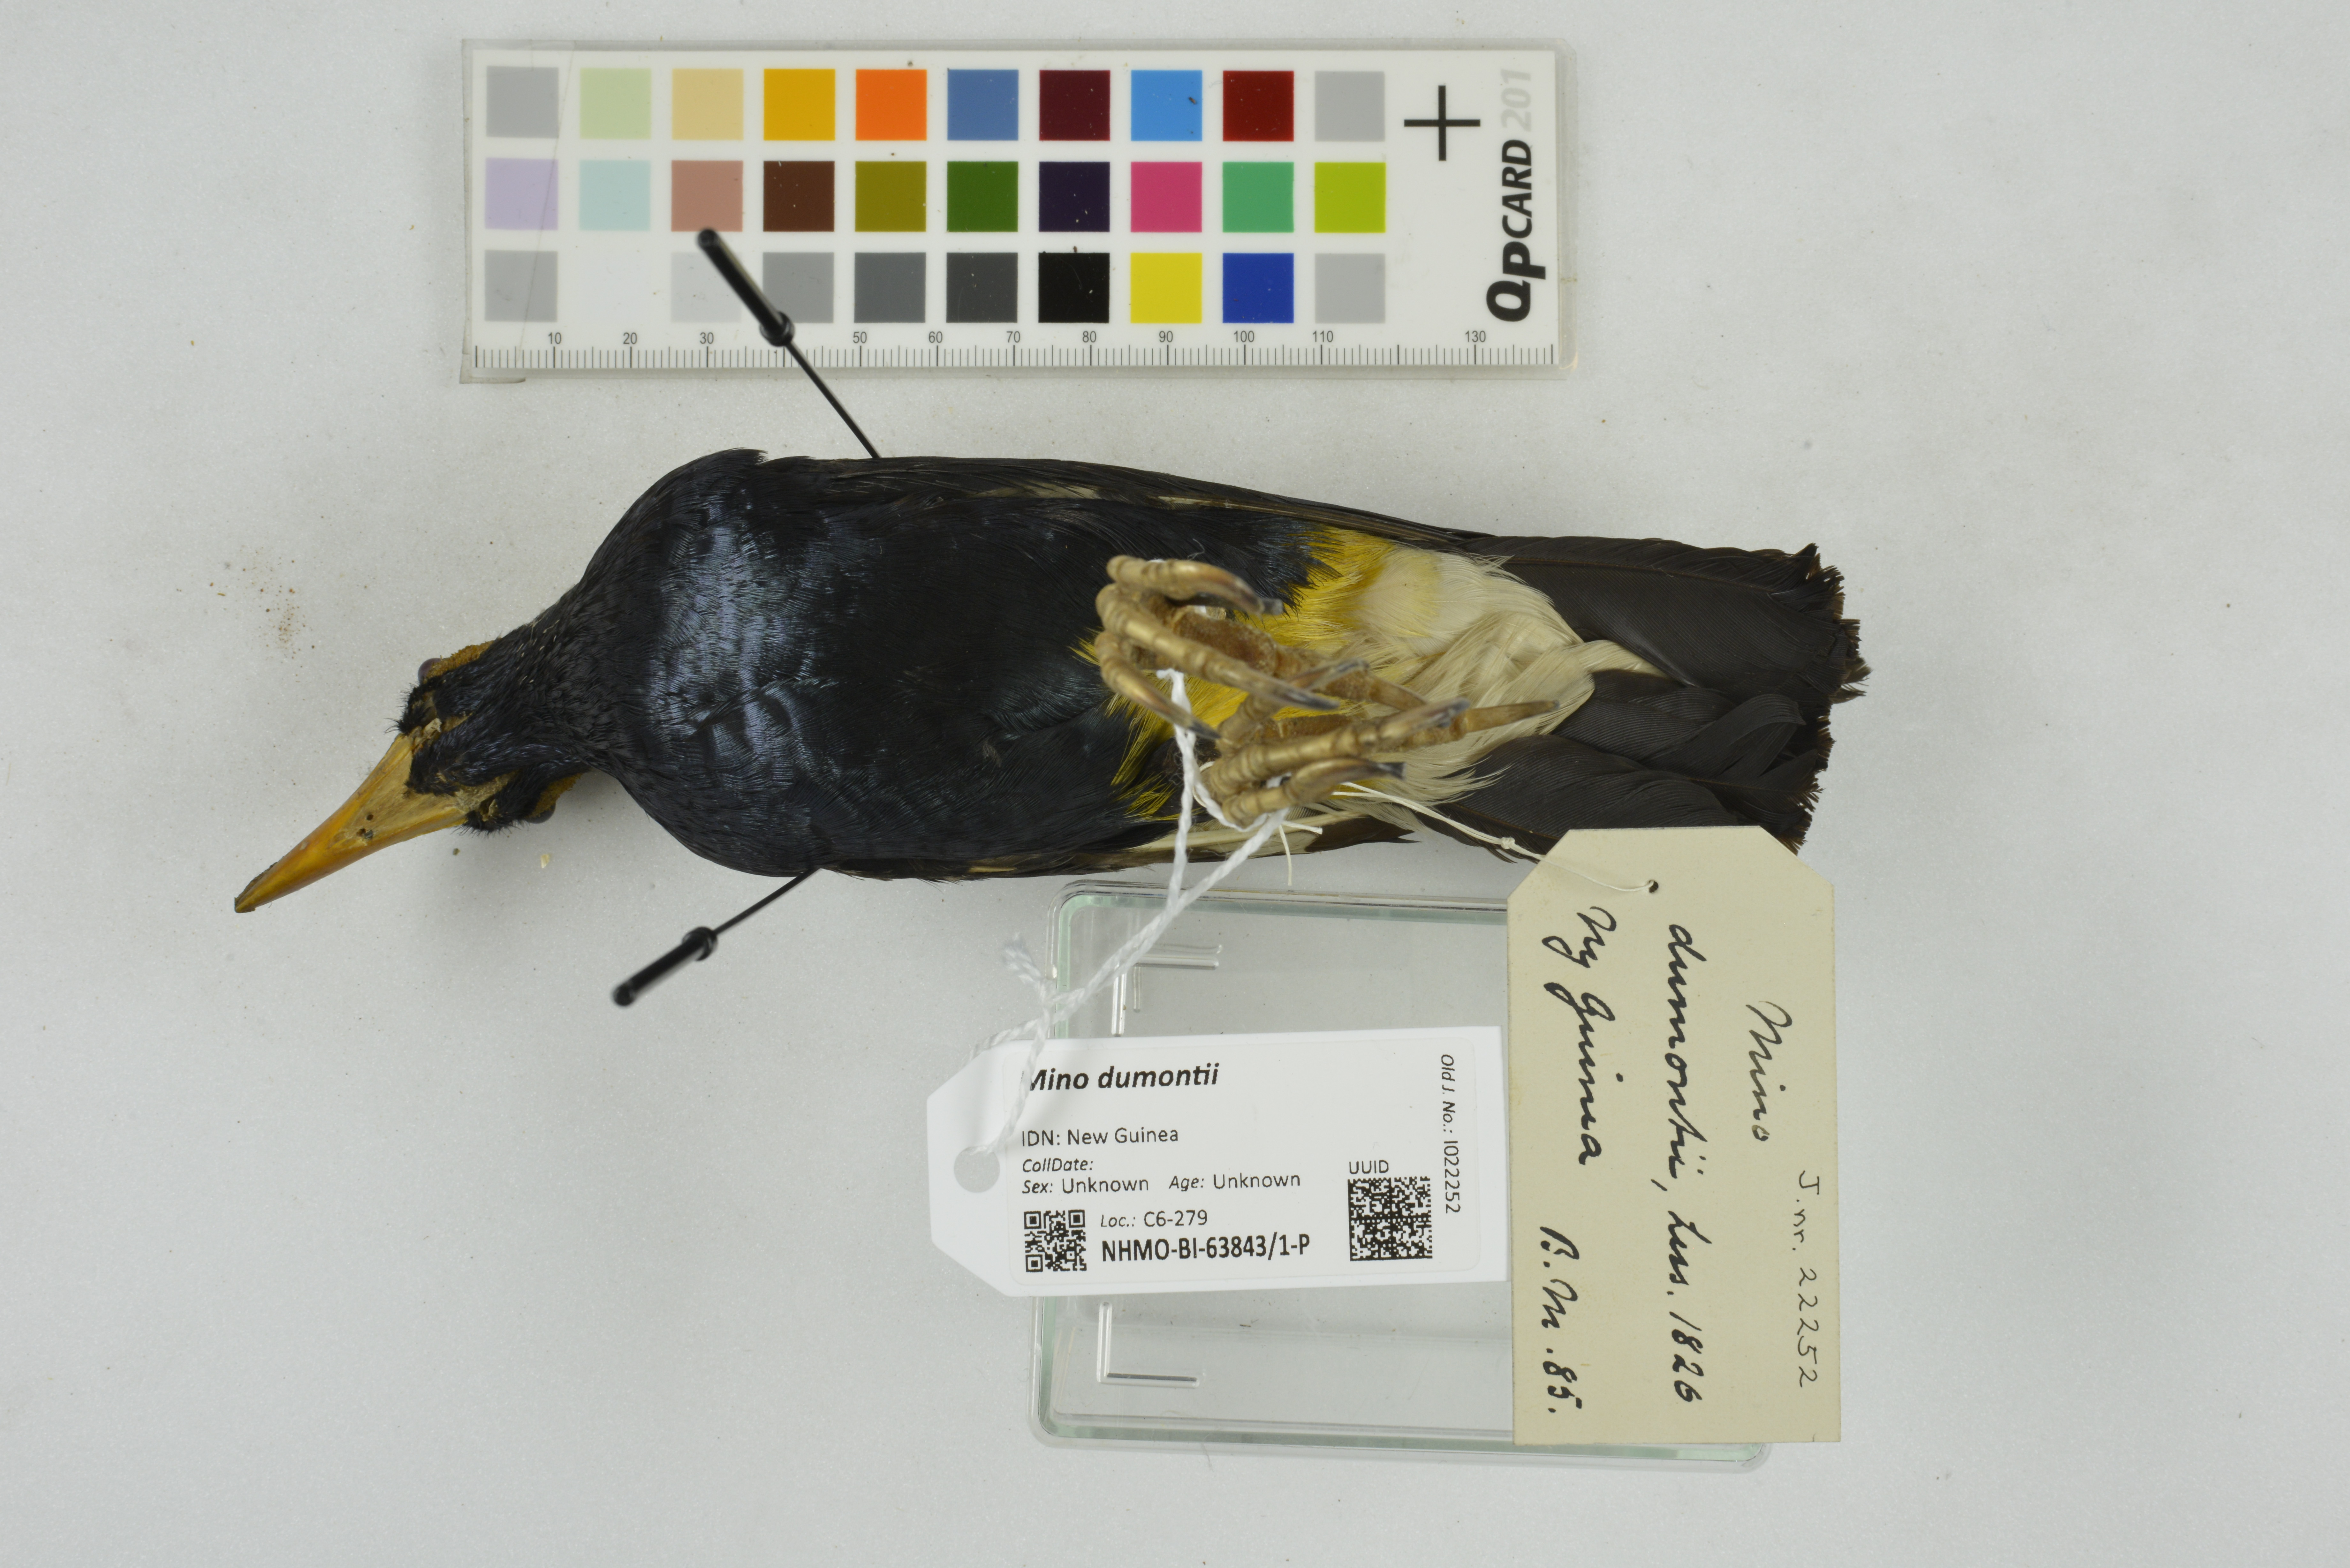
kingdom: Animalia
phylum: Chordata
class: Aves
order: Passeriformes
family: Sturnidae
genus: Mino
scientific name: Mino dumontii
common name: Yellow-faced myna
